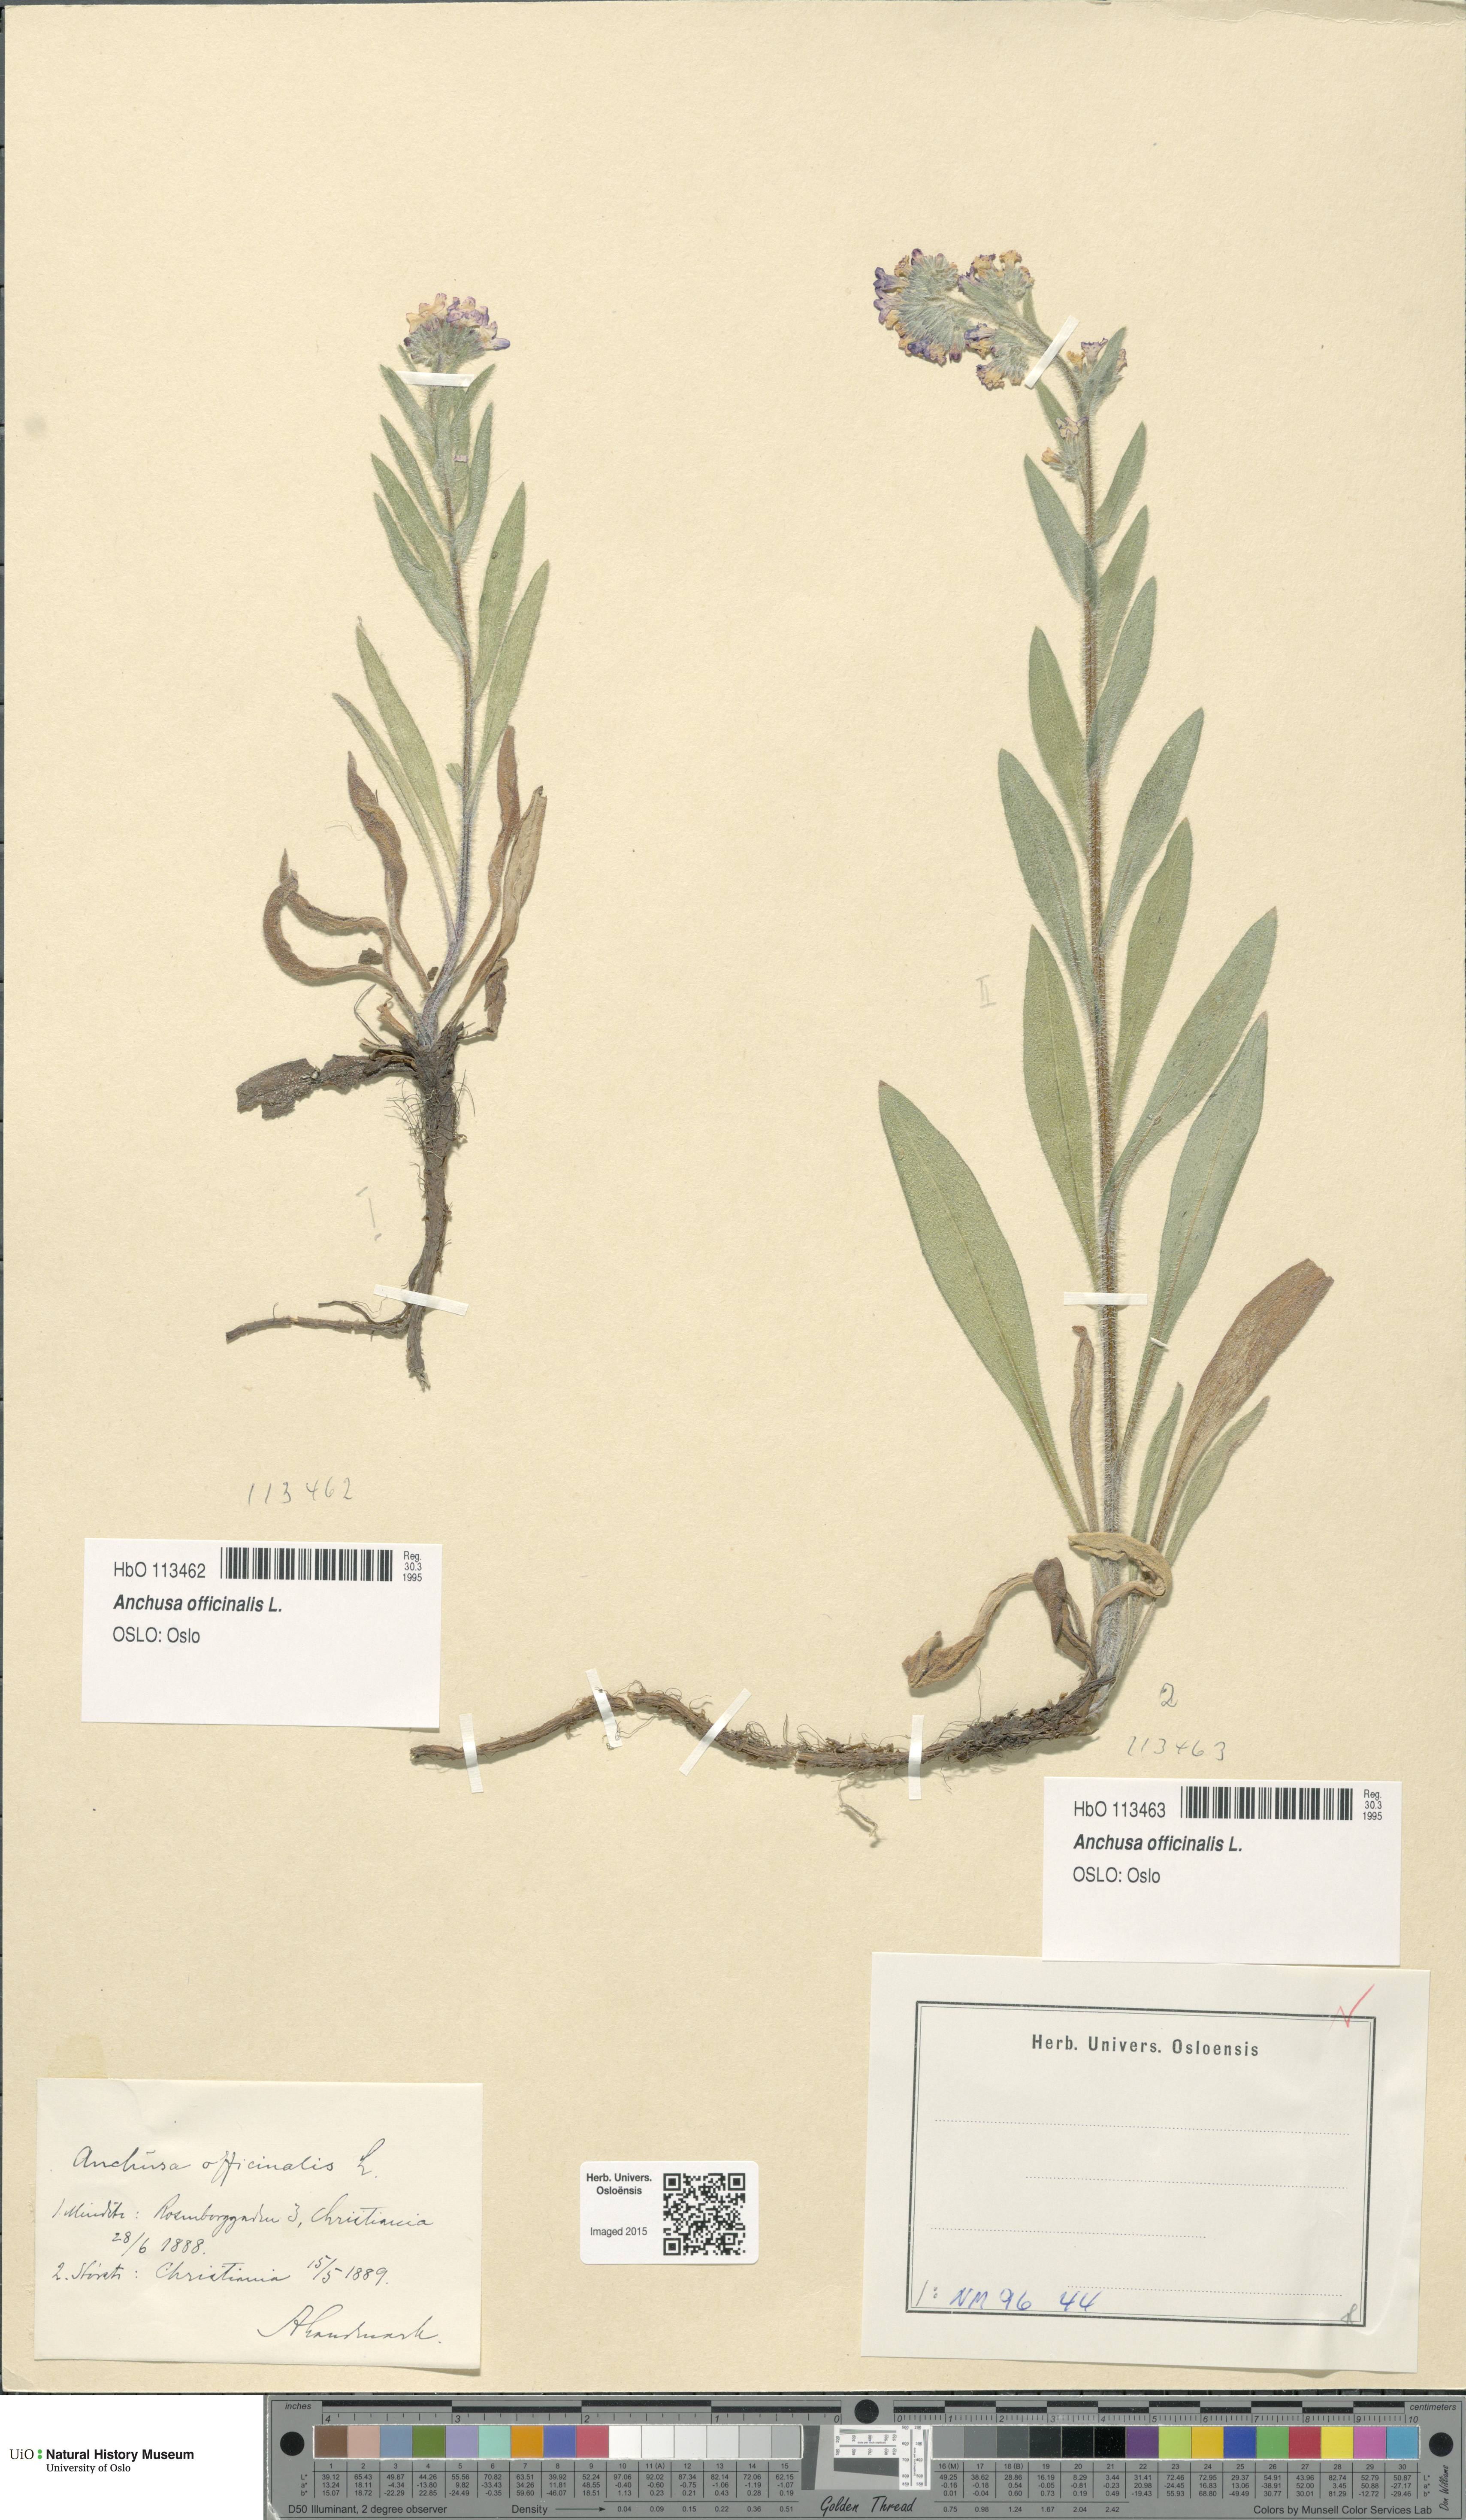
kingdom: Plantae
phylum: Tracheophyta
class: Magnoliopsida
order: Boraginales
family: Boraginaceae
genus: Anchusa
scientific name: Anchusa officinalis
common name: Alkanet
